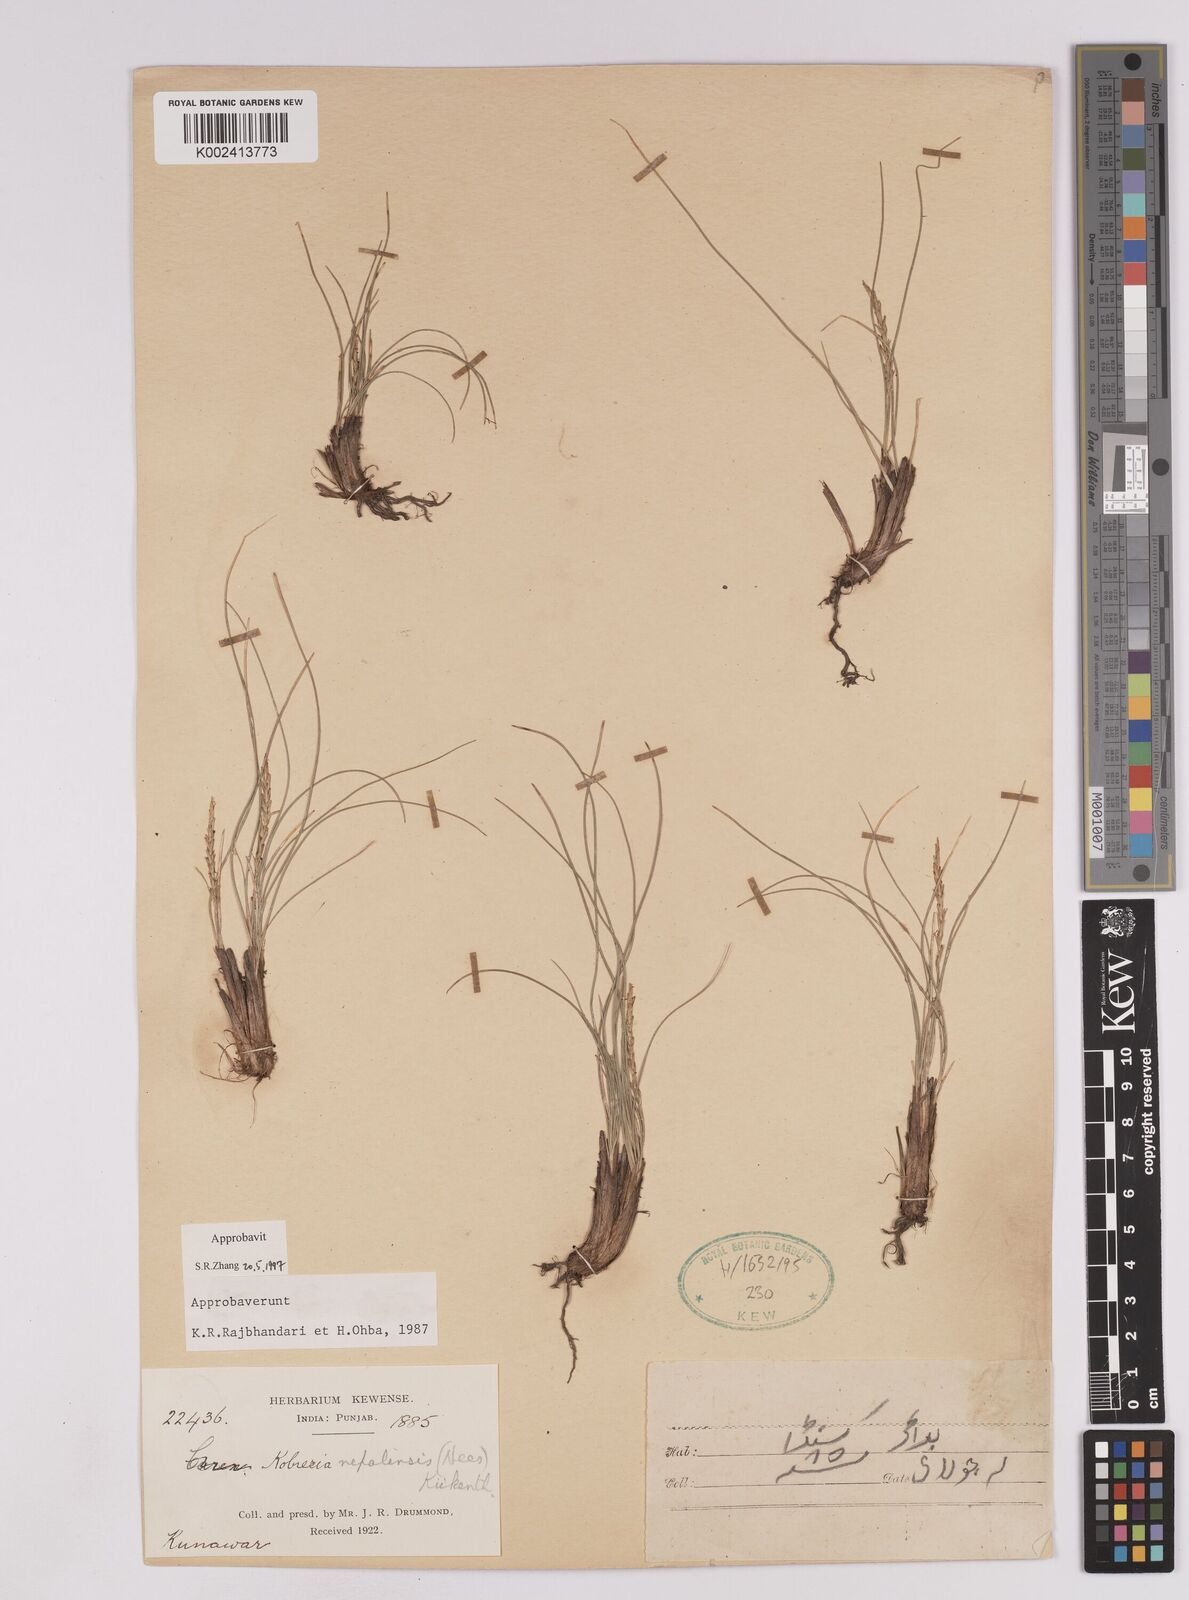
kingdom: Plantae
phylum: Tracheophyta
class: Liliopsida
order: Poales
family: Cyperaceae
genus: Carex
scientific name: Carex unciniiformis
